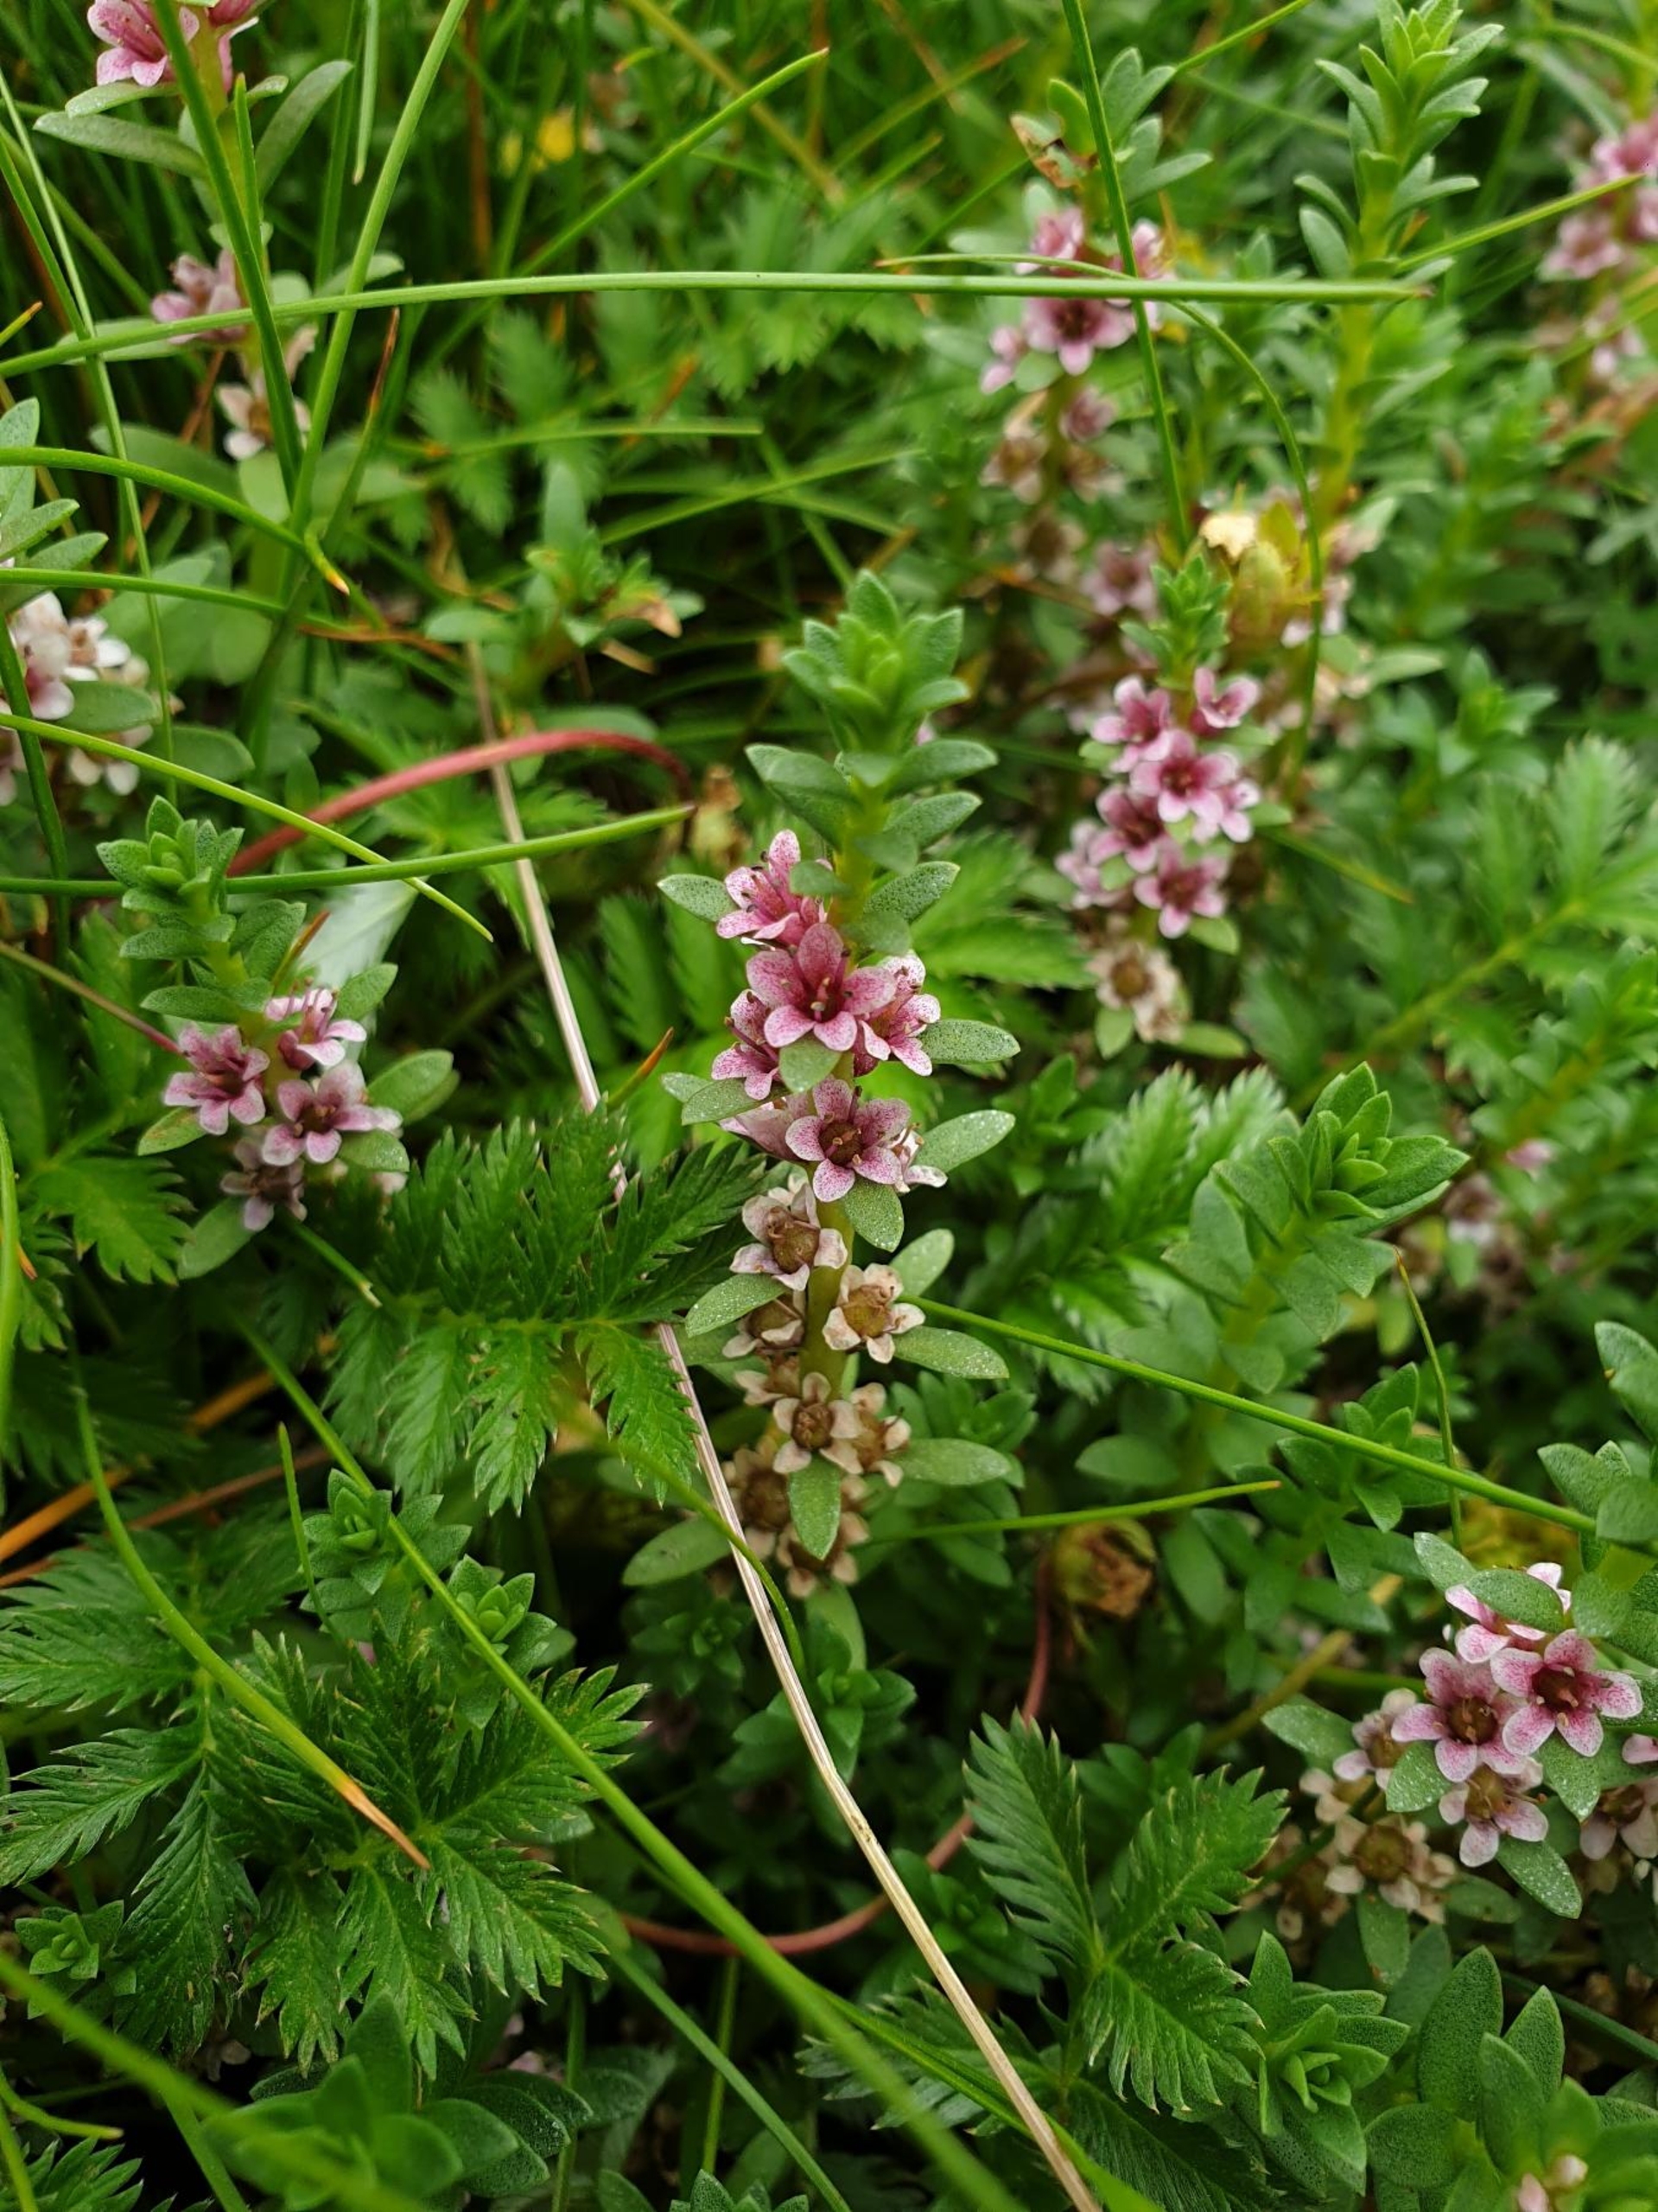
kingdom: Plantae
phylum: Tracheophyta
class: Magnoliopsida
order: Ericales
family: Primulaceae
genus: Lysimachia
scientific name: Lysimachia maritima
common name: Sandkryb
